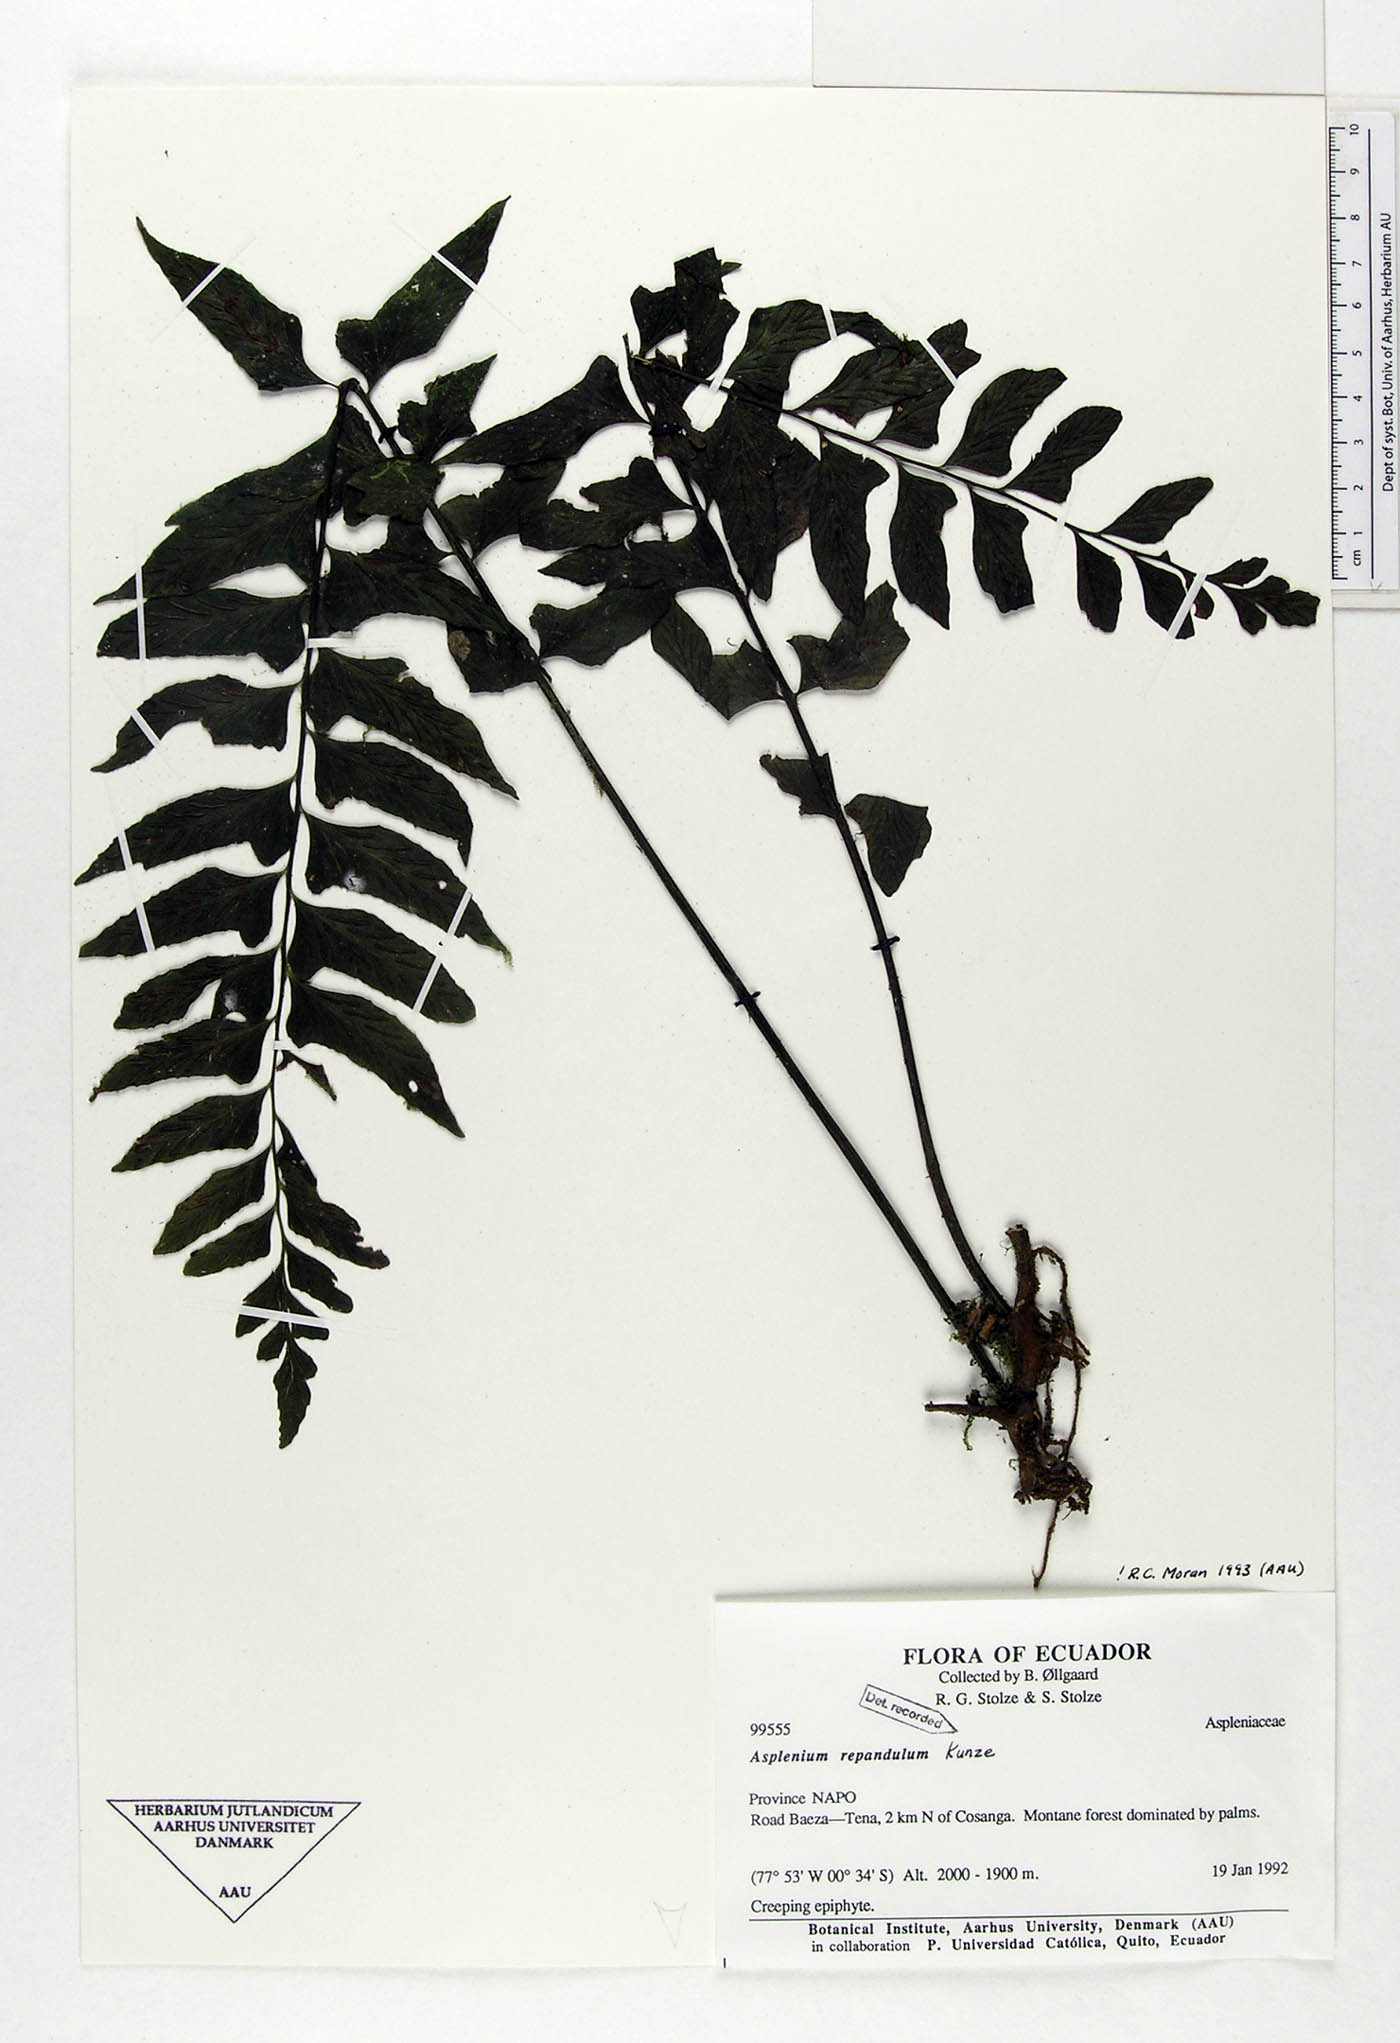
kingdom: Plantae
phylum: Tracheophyta
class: Polypodiopsida
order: Polypodiales
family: Aspleniaceae
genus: Hymenasplenium
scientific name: Hymenasplenium repandulum
